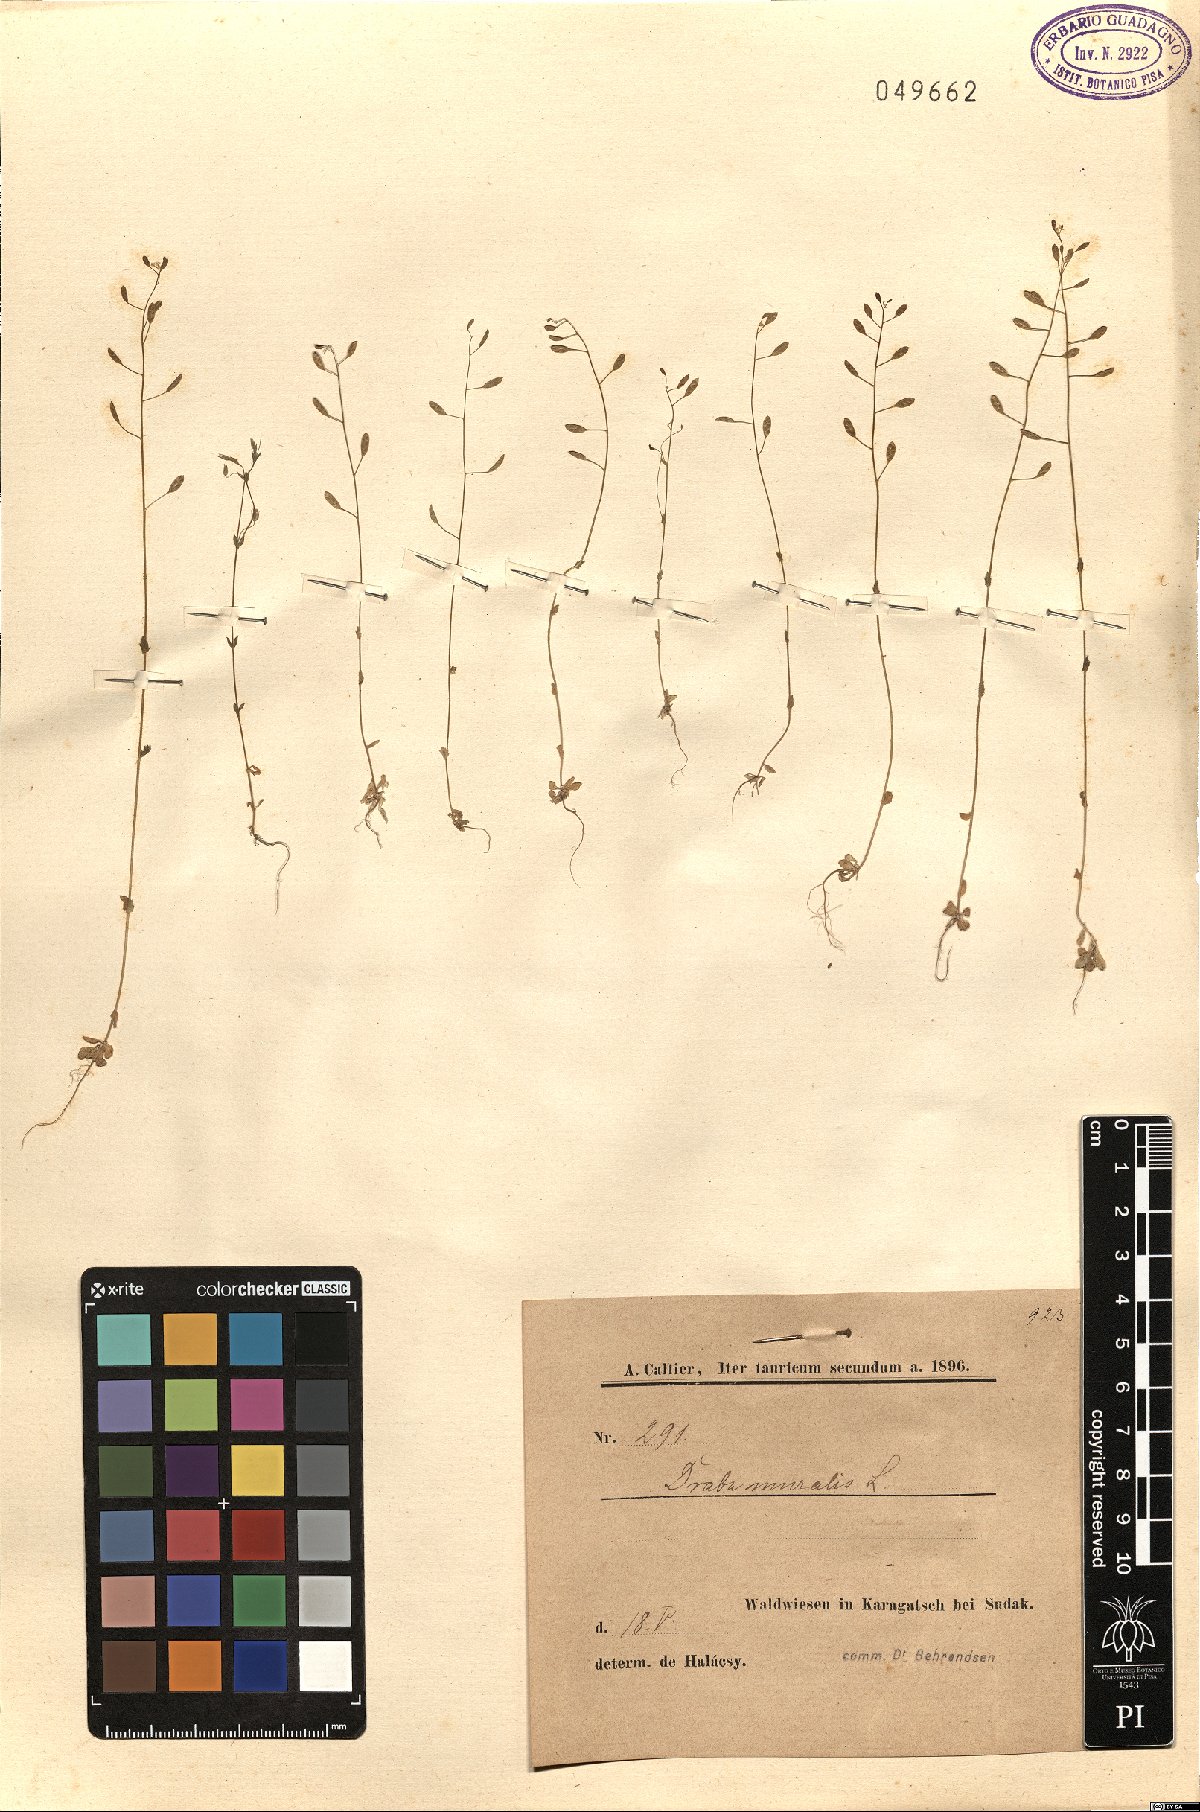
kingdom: Plantae
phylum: Tracheophyta
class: Magnoliopsida
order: Brassicales
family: Brassicaceae
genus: Drabella
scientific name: Drabella muralis
